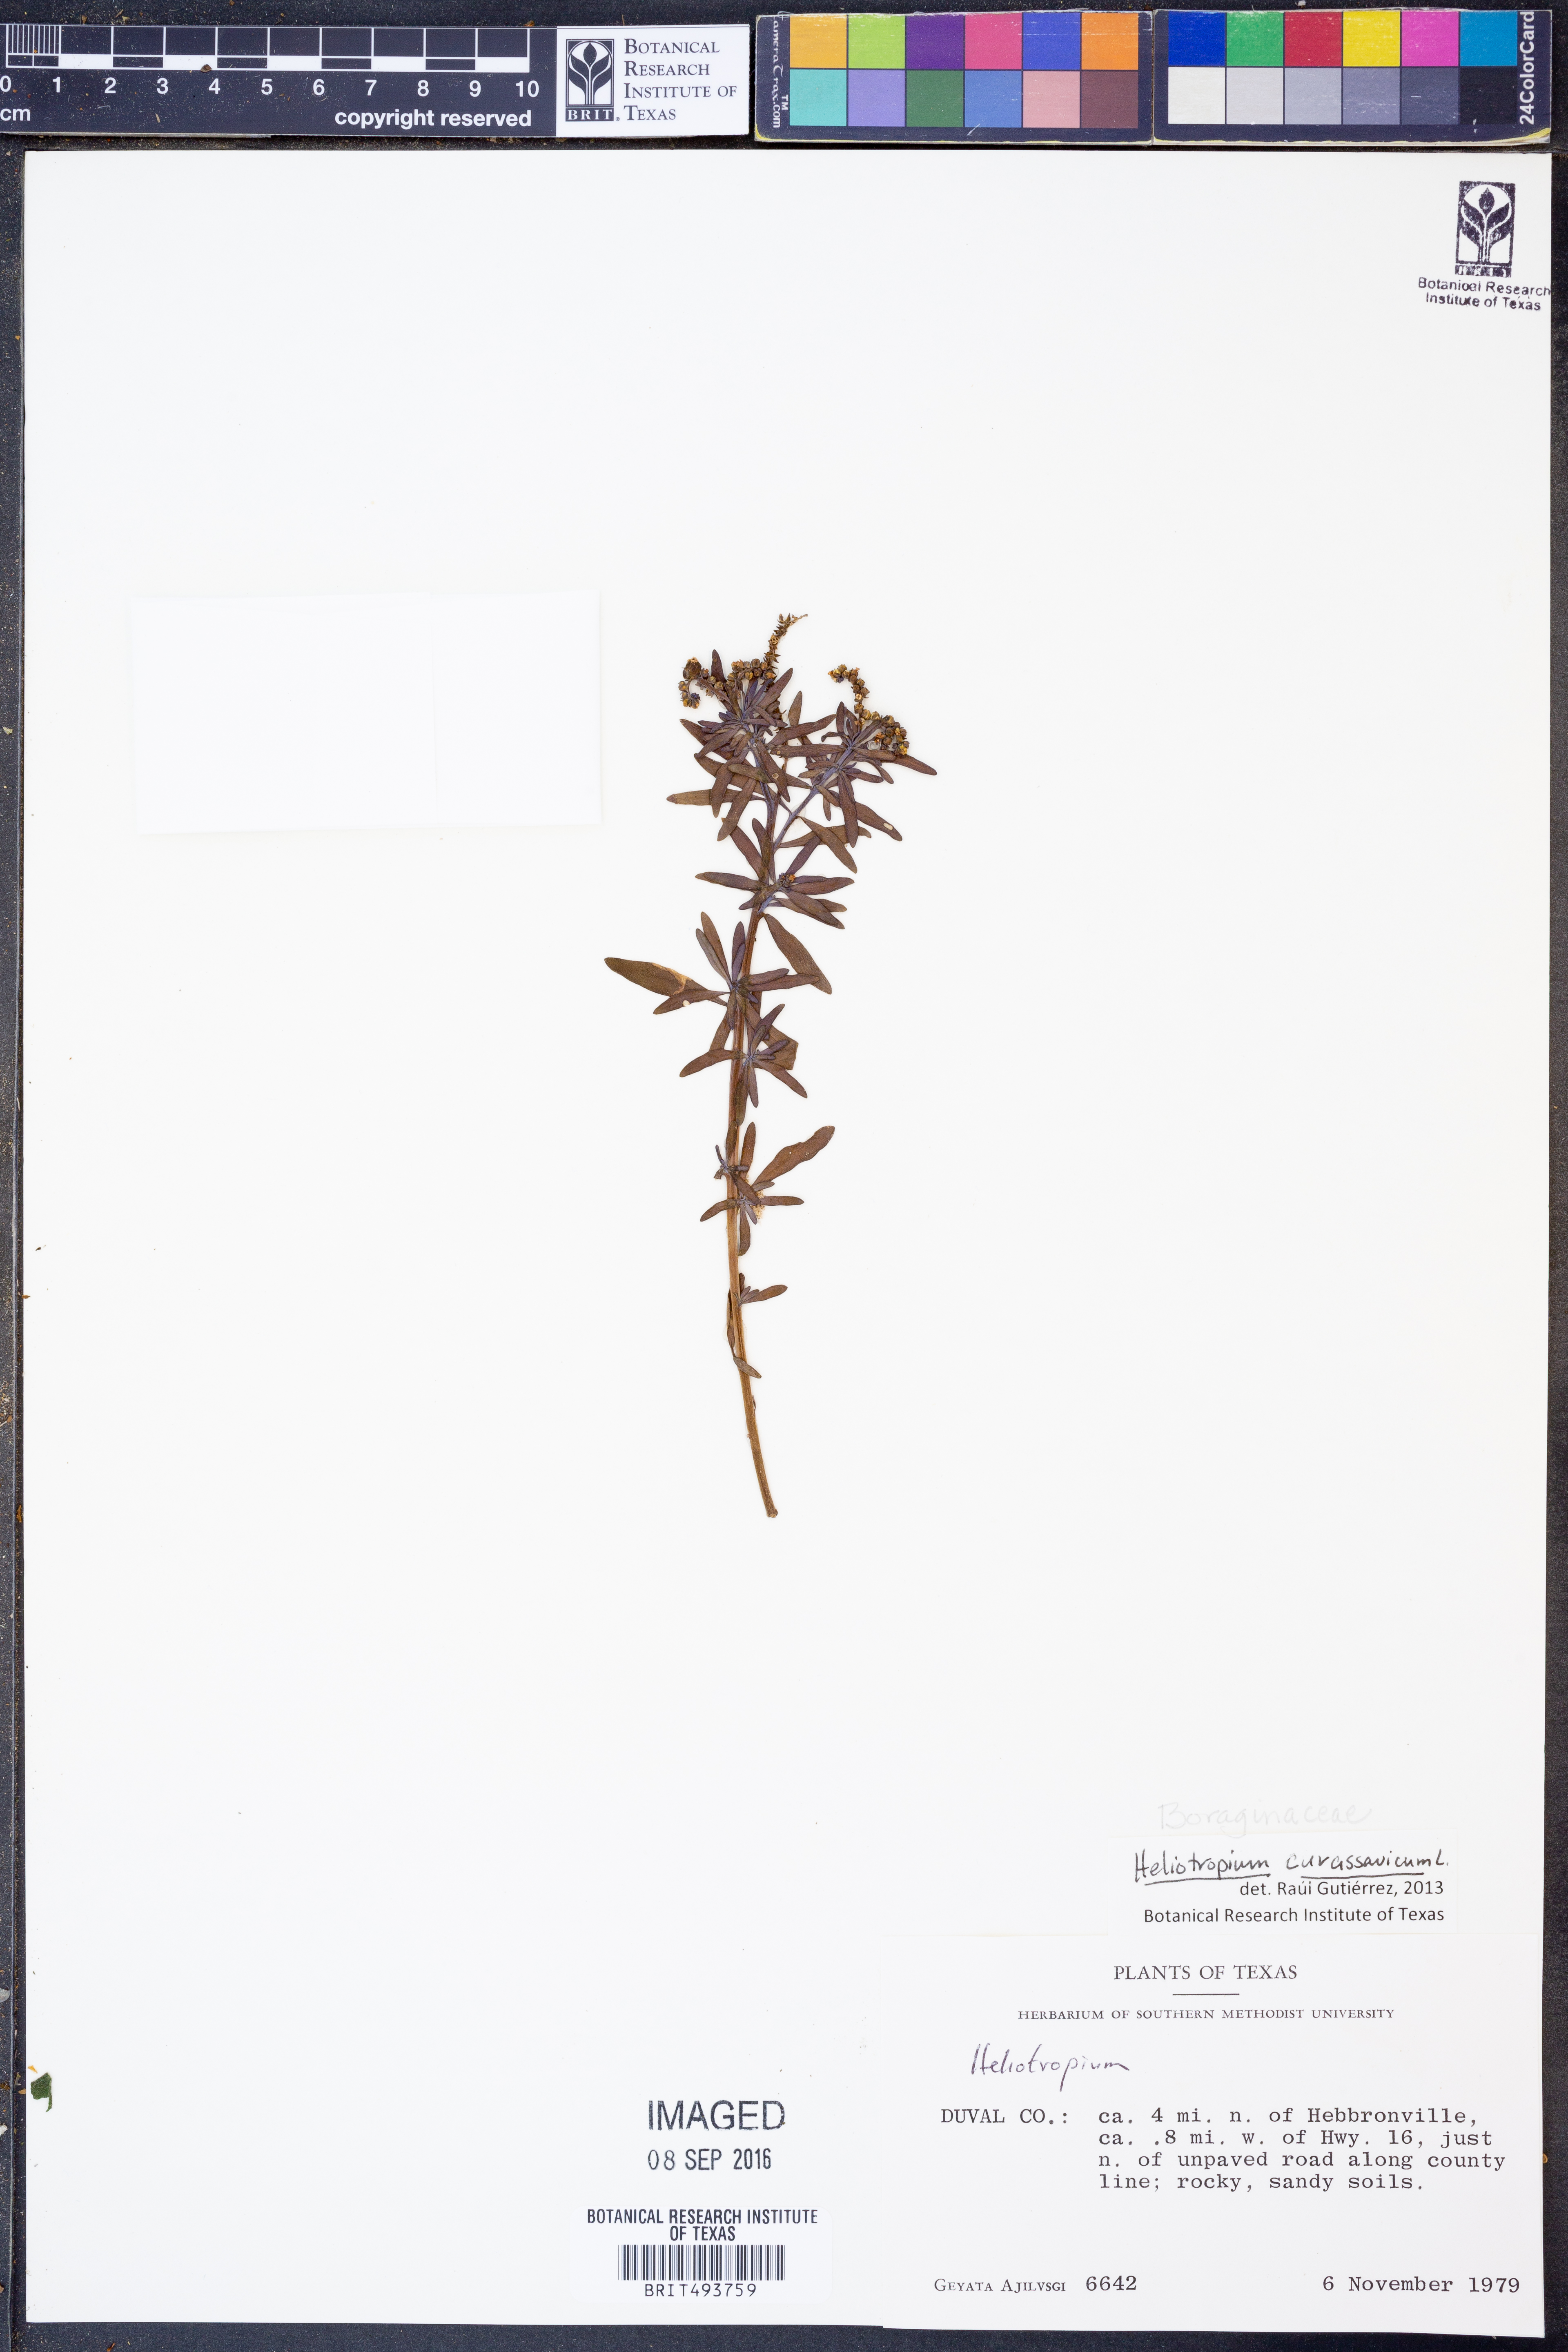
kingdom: Plantae
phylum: Tracheophyta
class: Magnoliopsida
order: Boraginales
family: Heliotropiaceae
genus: Heliotropium
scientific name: Heliotropium curassavicum
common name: Seaside heliotrope
